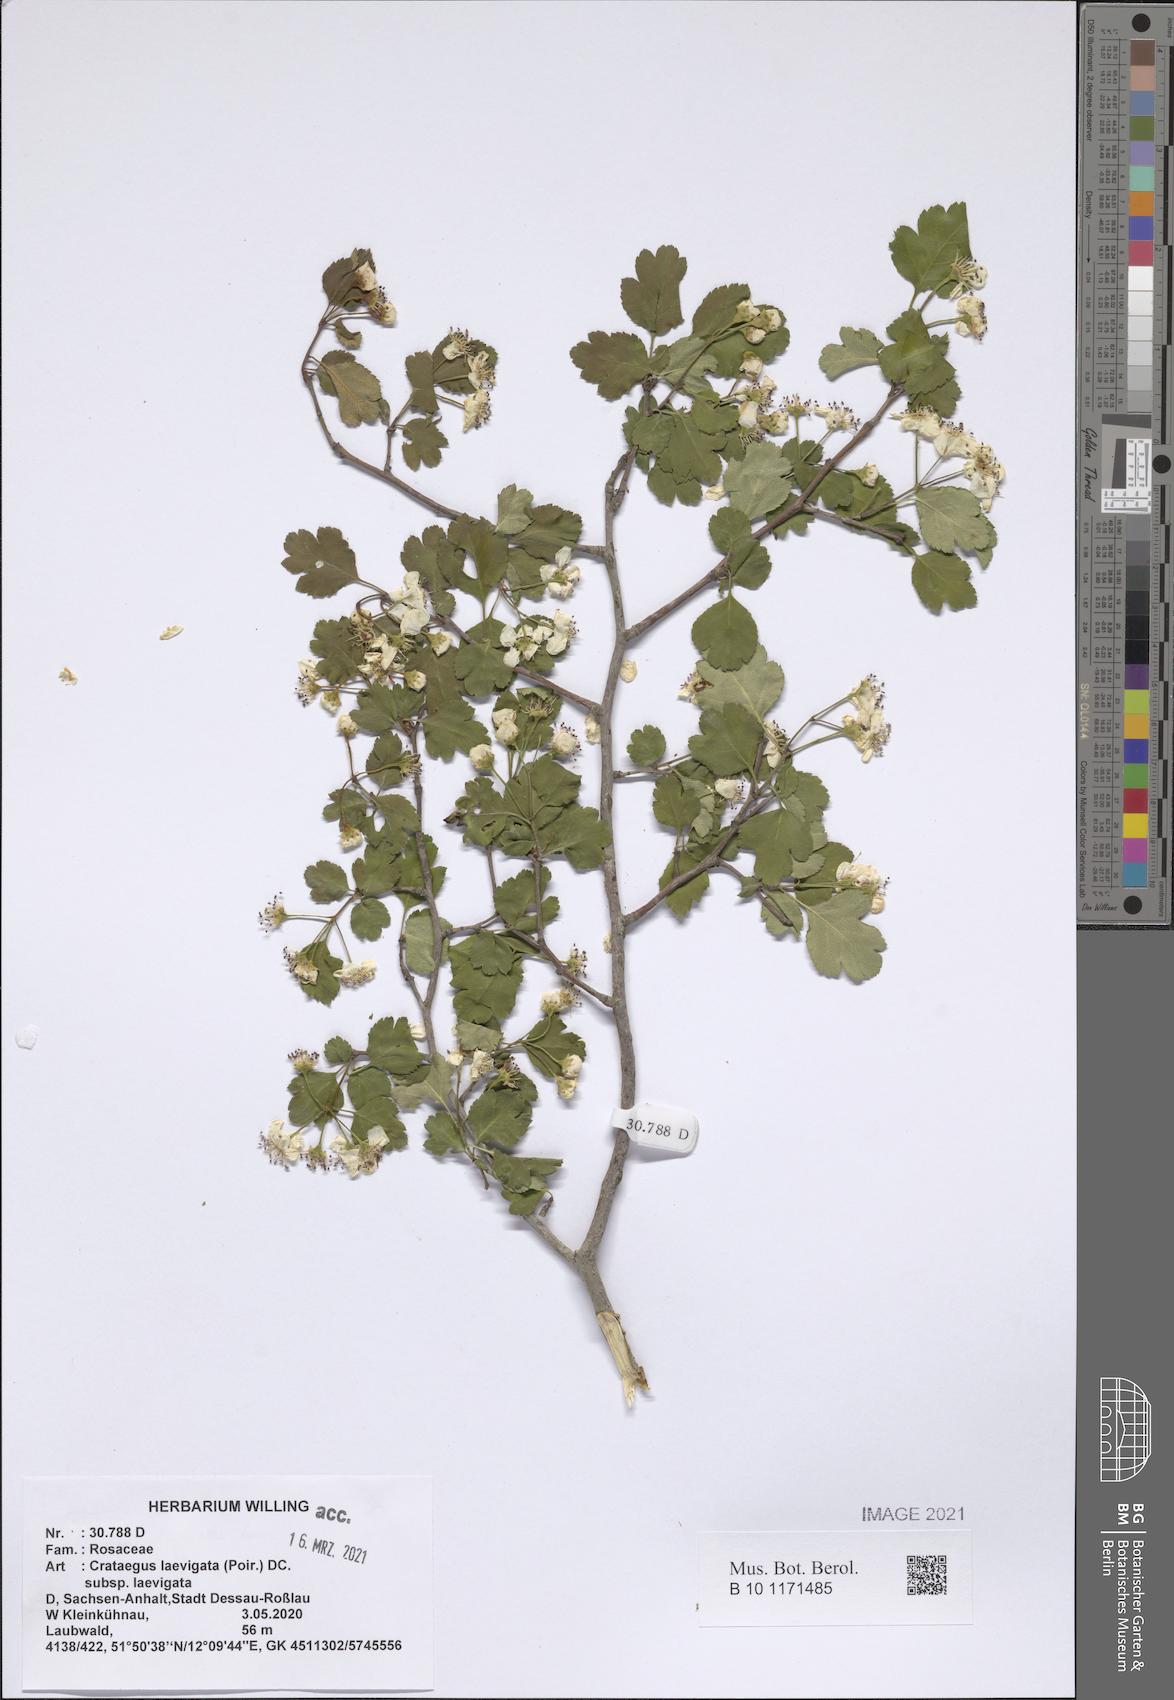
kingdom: Plantae
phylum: Tracheophyta
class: Magnoliopsida
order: Rosales
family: Rosaceae
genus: Crataegus
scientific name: Crataegus laevigata
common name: Midland hawthorn
